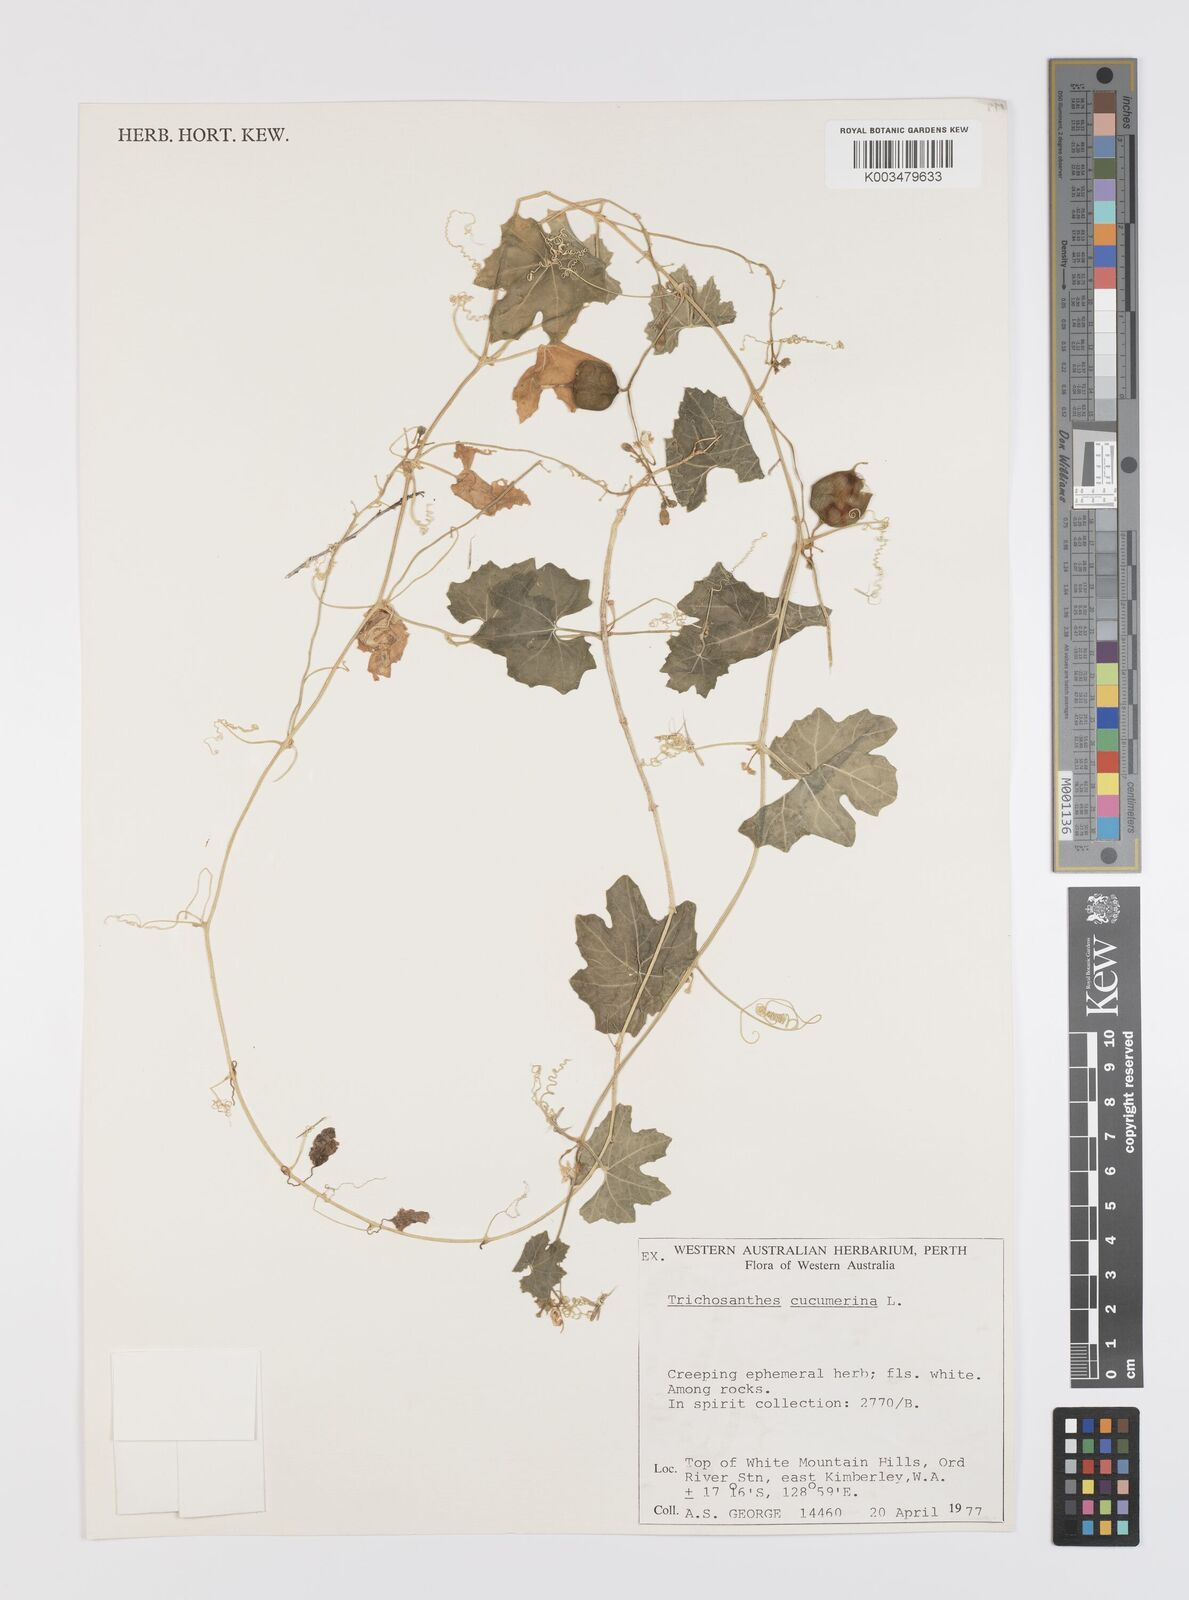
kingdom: Plantae
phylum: Tracheophyta
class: Magnoliopsida
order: Cucurbitales
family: Cucurbitaceae
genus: Trichosanthes
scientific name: Trichosanthes cucumerina
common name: Snakegourd
